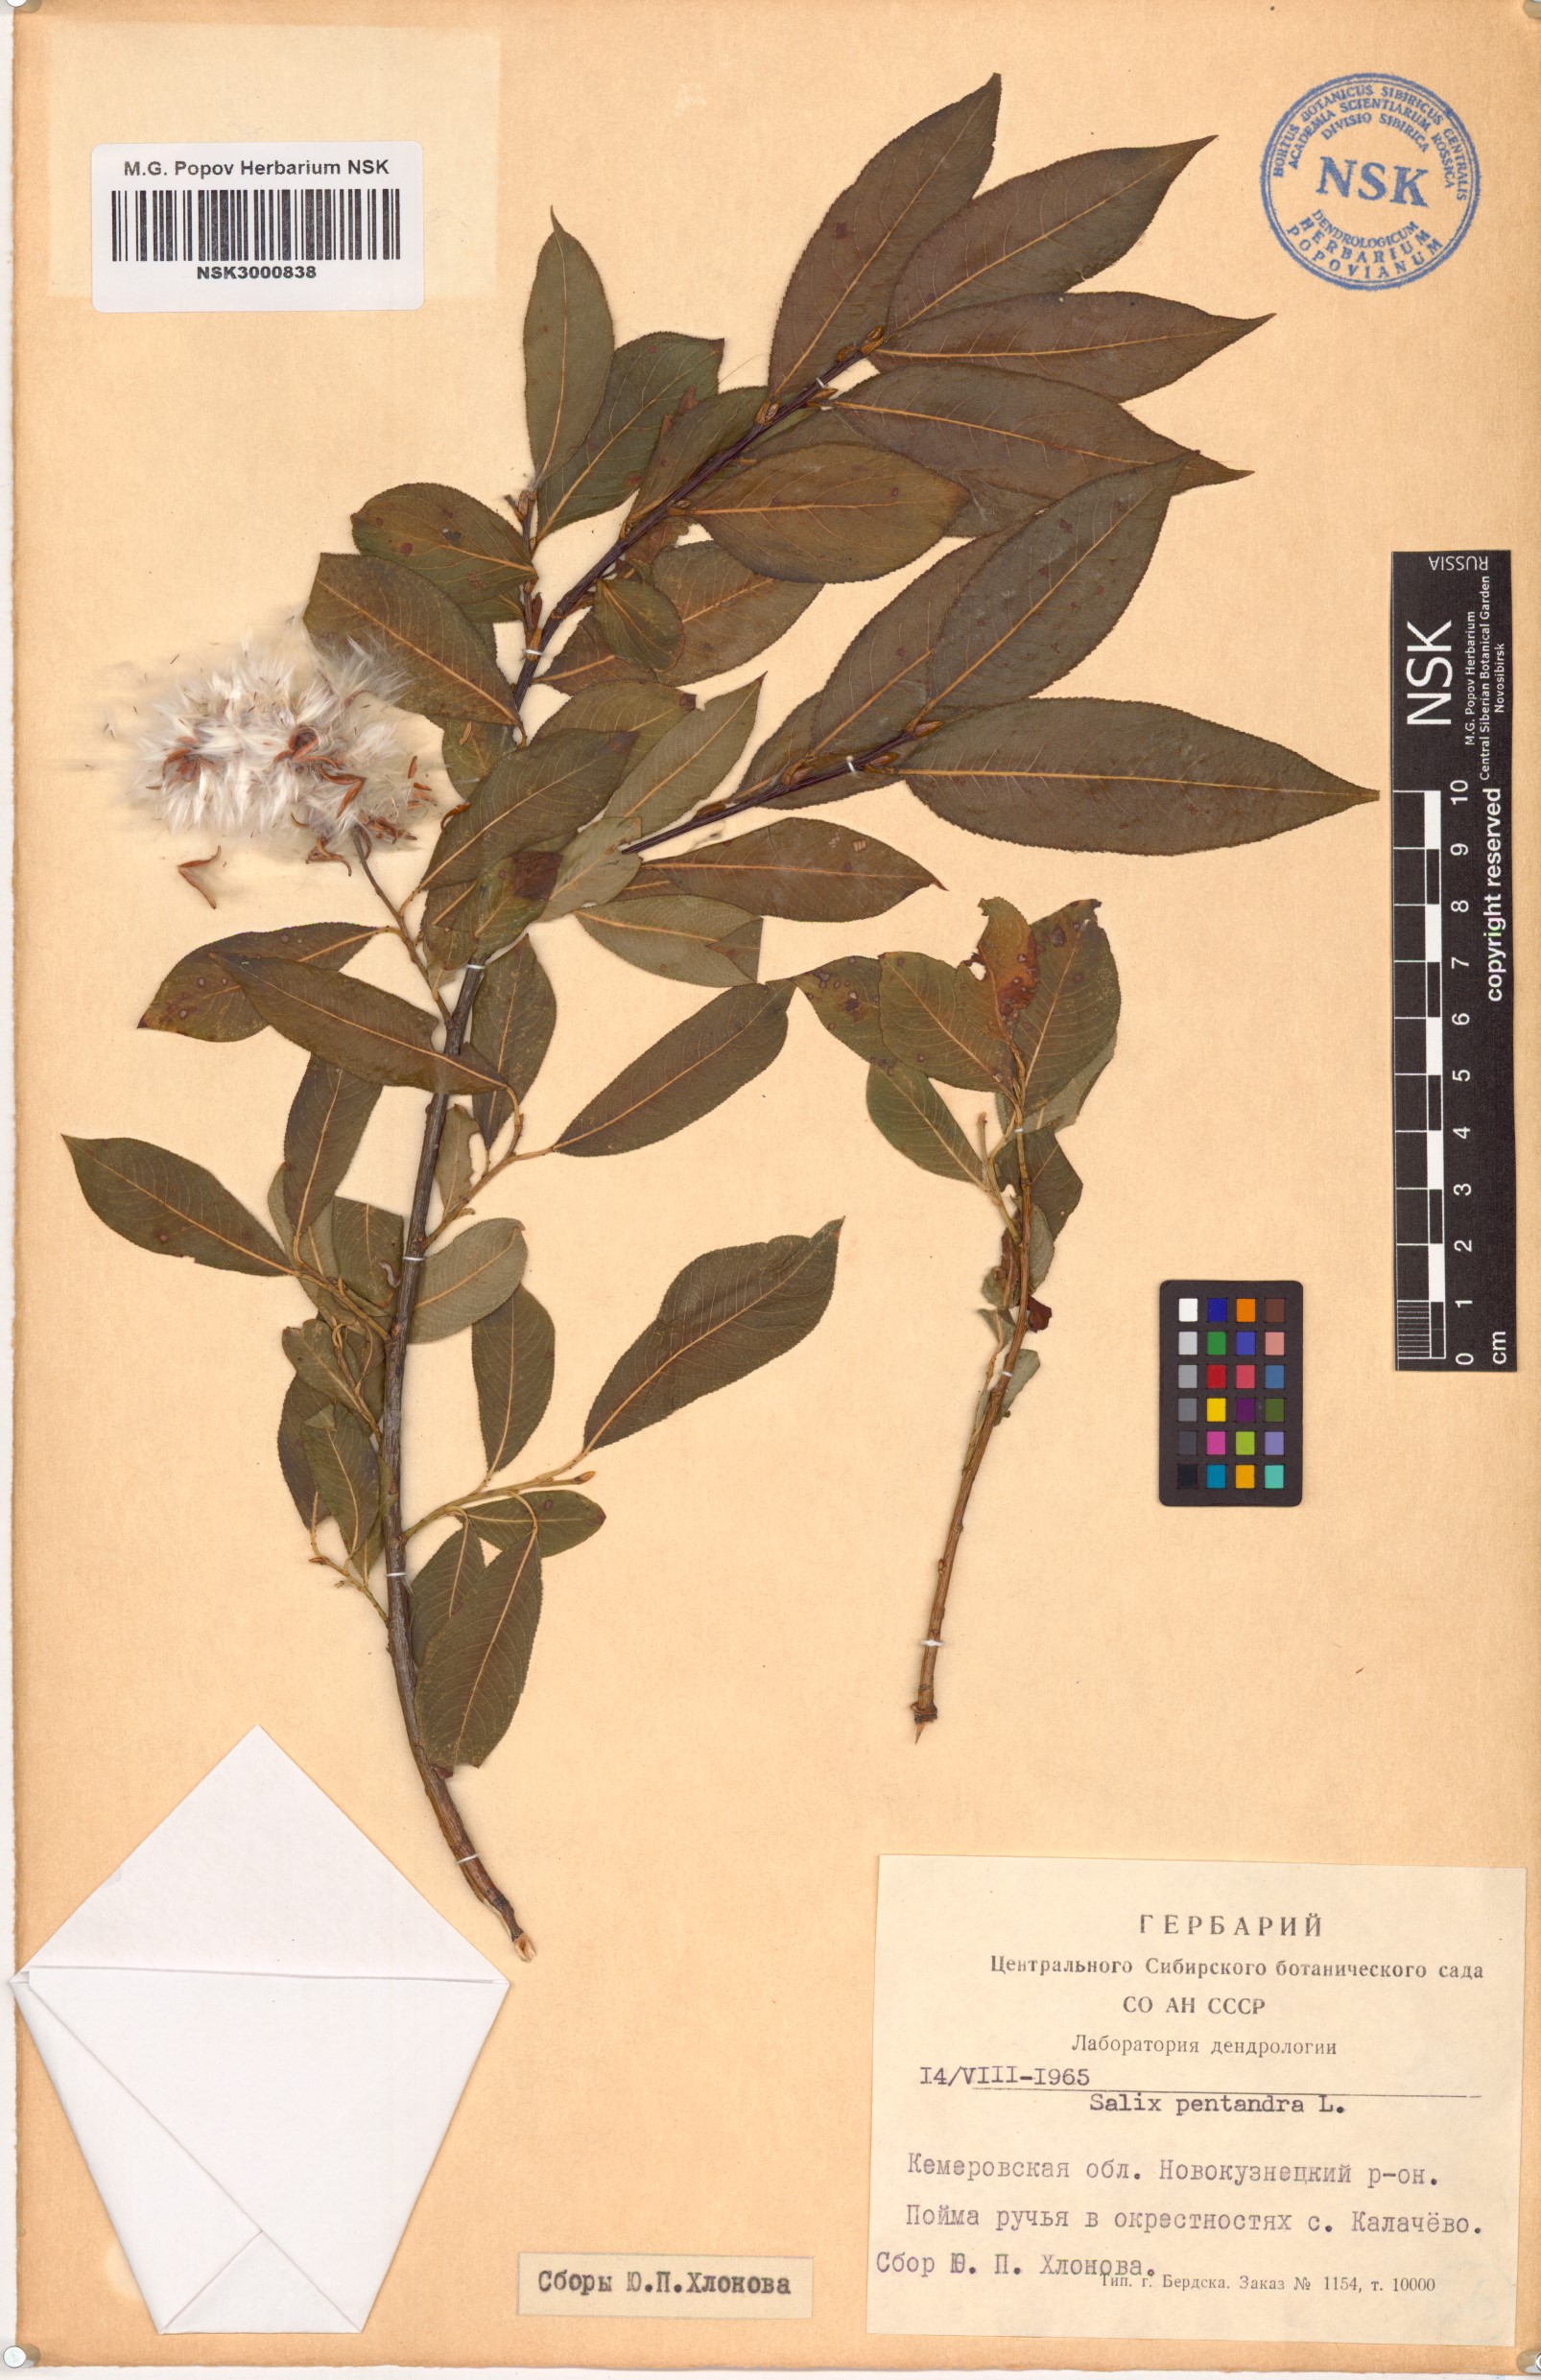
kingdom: Plantae
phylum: Tracheophyta
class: Magnoliopsida
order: Malpighiales
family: Salicaceae
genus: Salix
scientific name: Salix pentandra
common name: Bay willow
